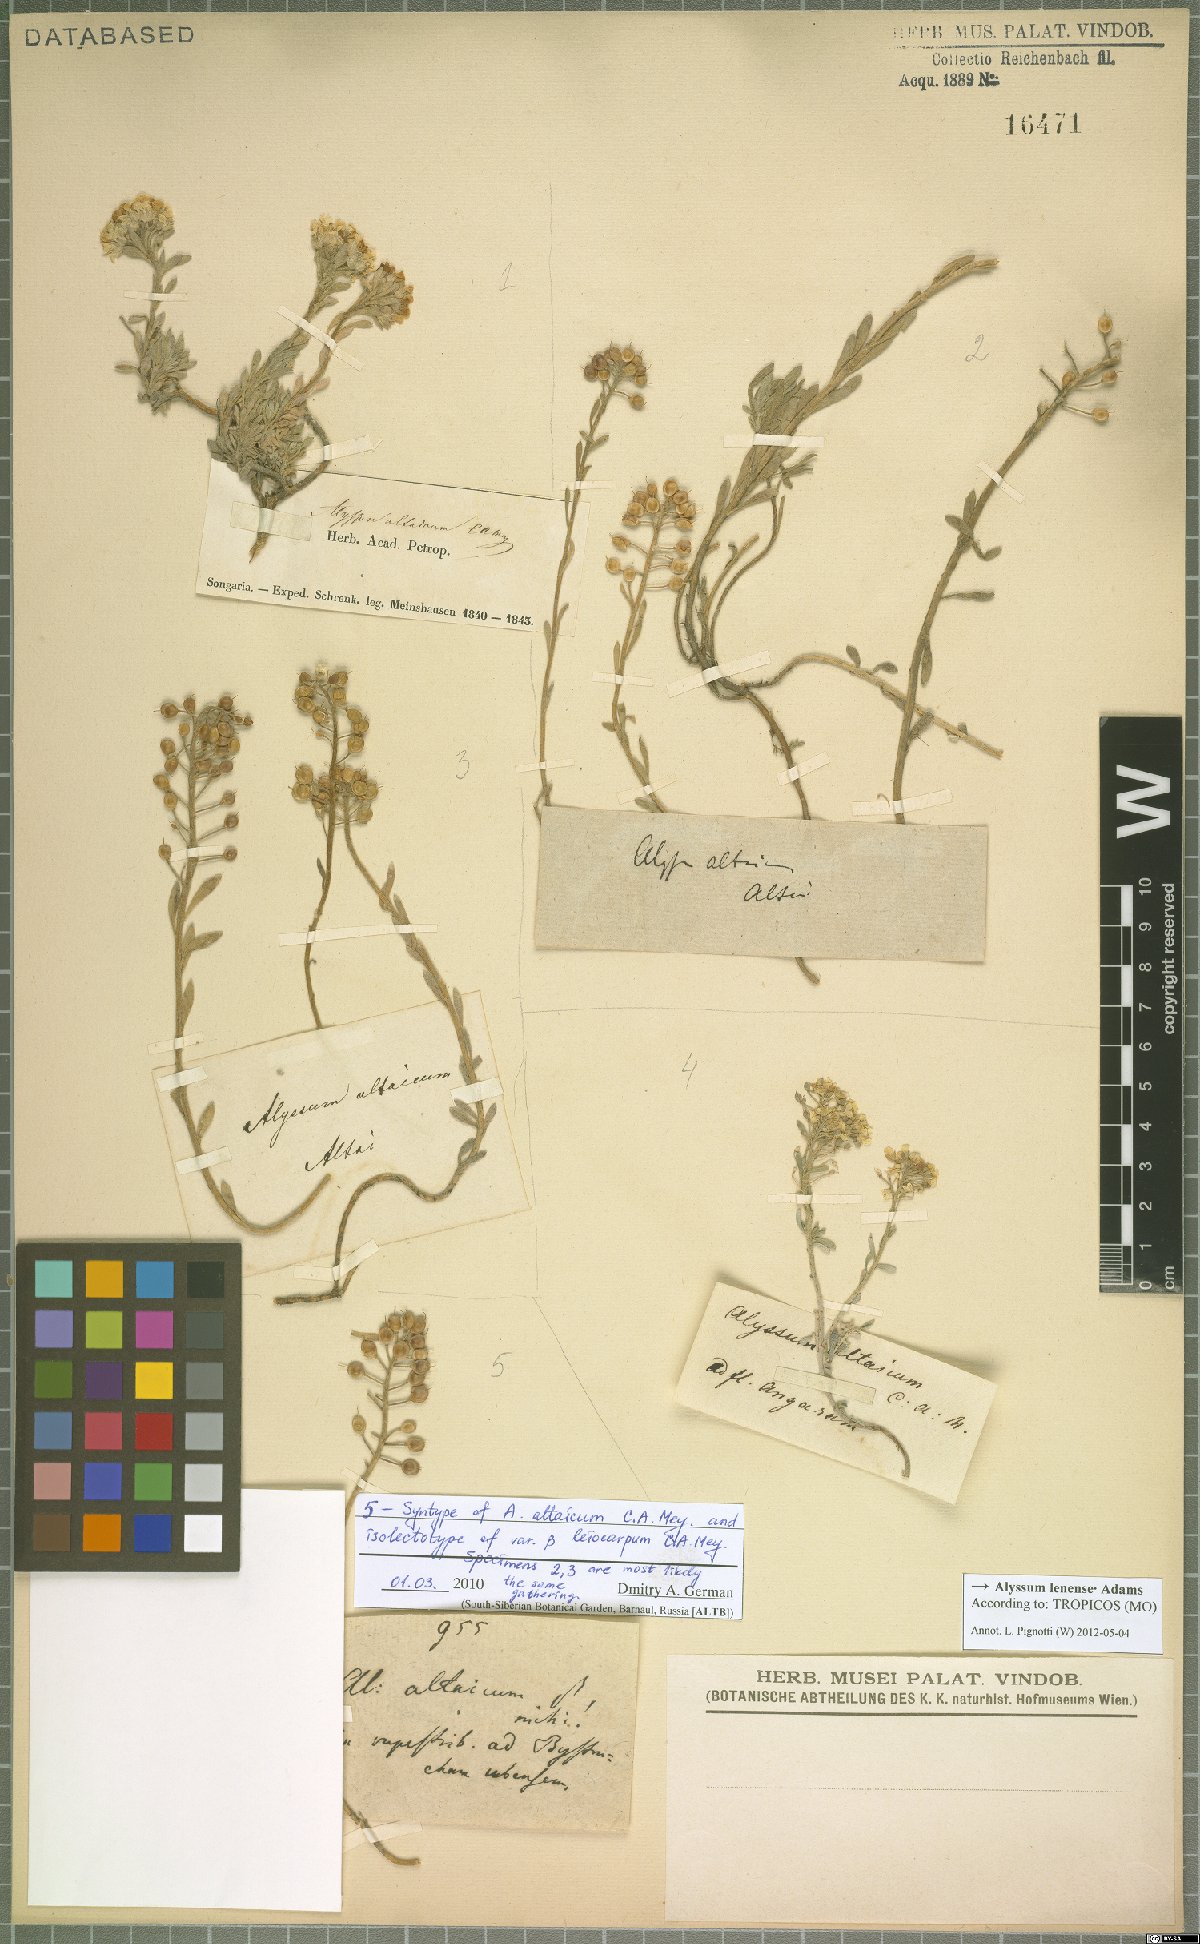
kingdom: Plantae
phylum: Tracheophyta
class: Magnoliopsida
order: Brassicales
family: Brassicaceae
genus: Alyssum
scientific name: Alyssum lenense
